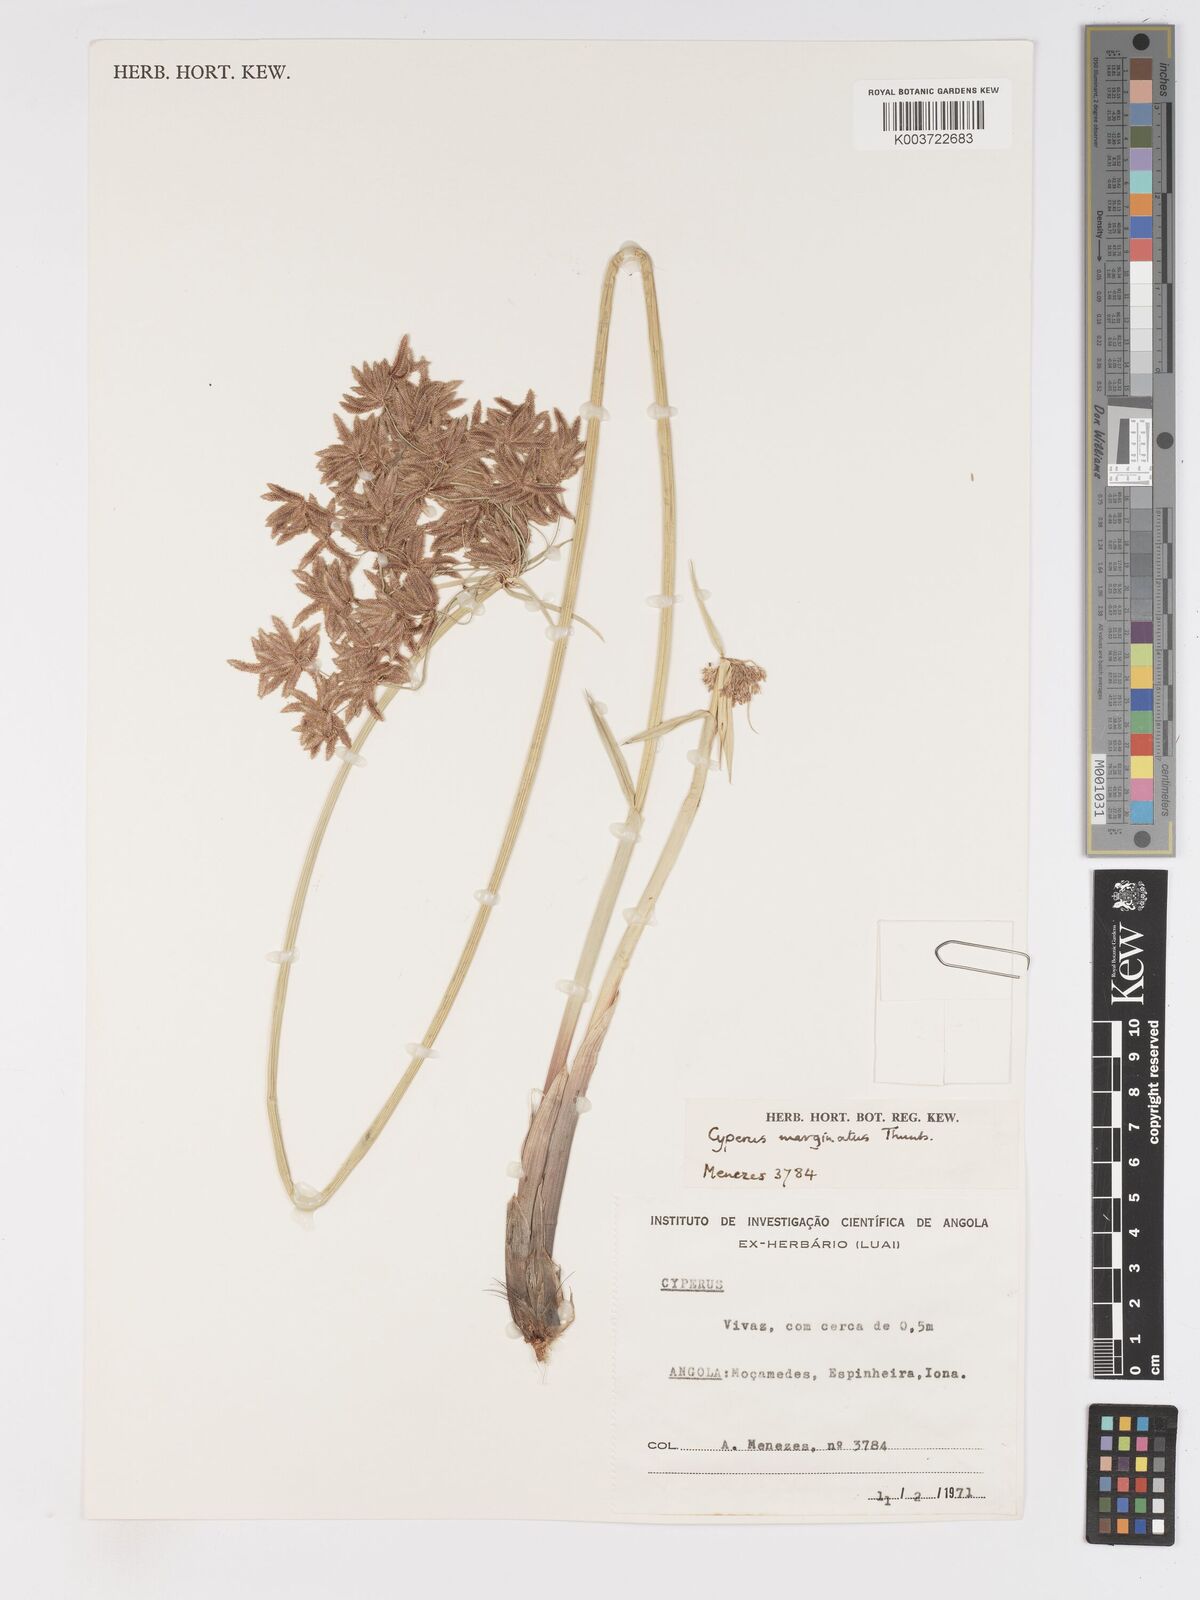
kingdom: Plantae
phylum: Tracheophyta
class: Liliopsida
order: Poales
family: Cyperaceae
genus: Cyperus
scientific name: Cyperus marginatus
